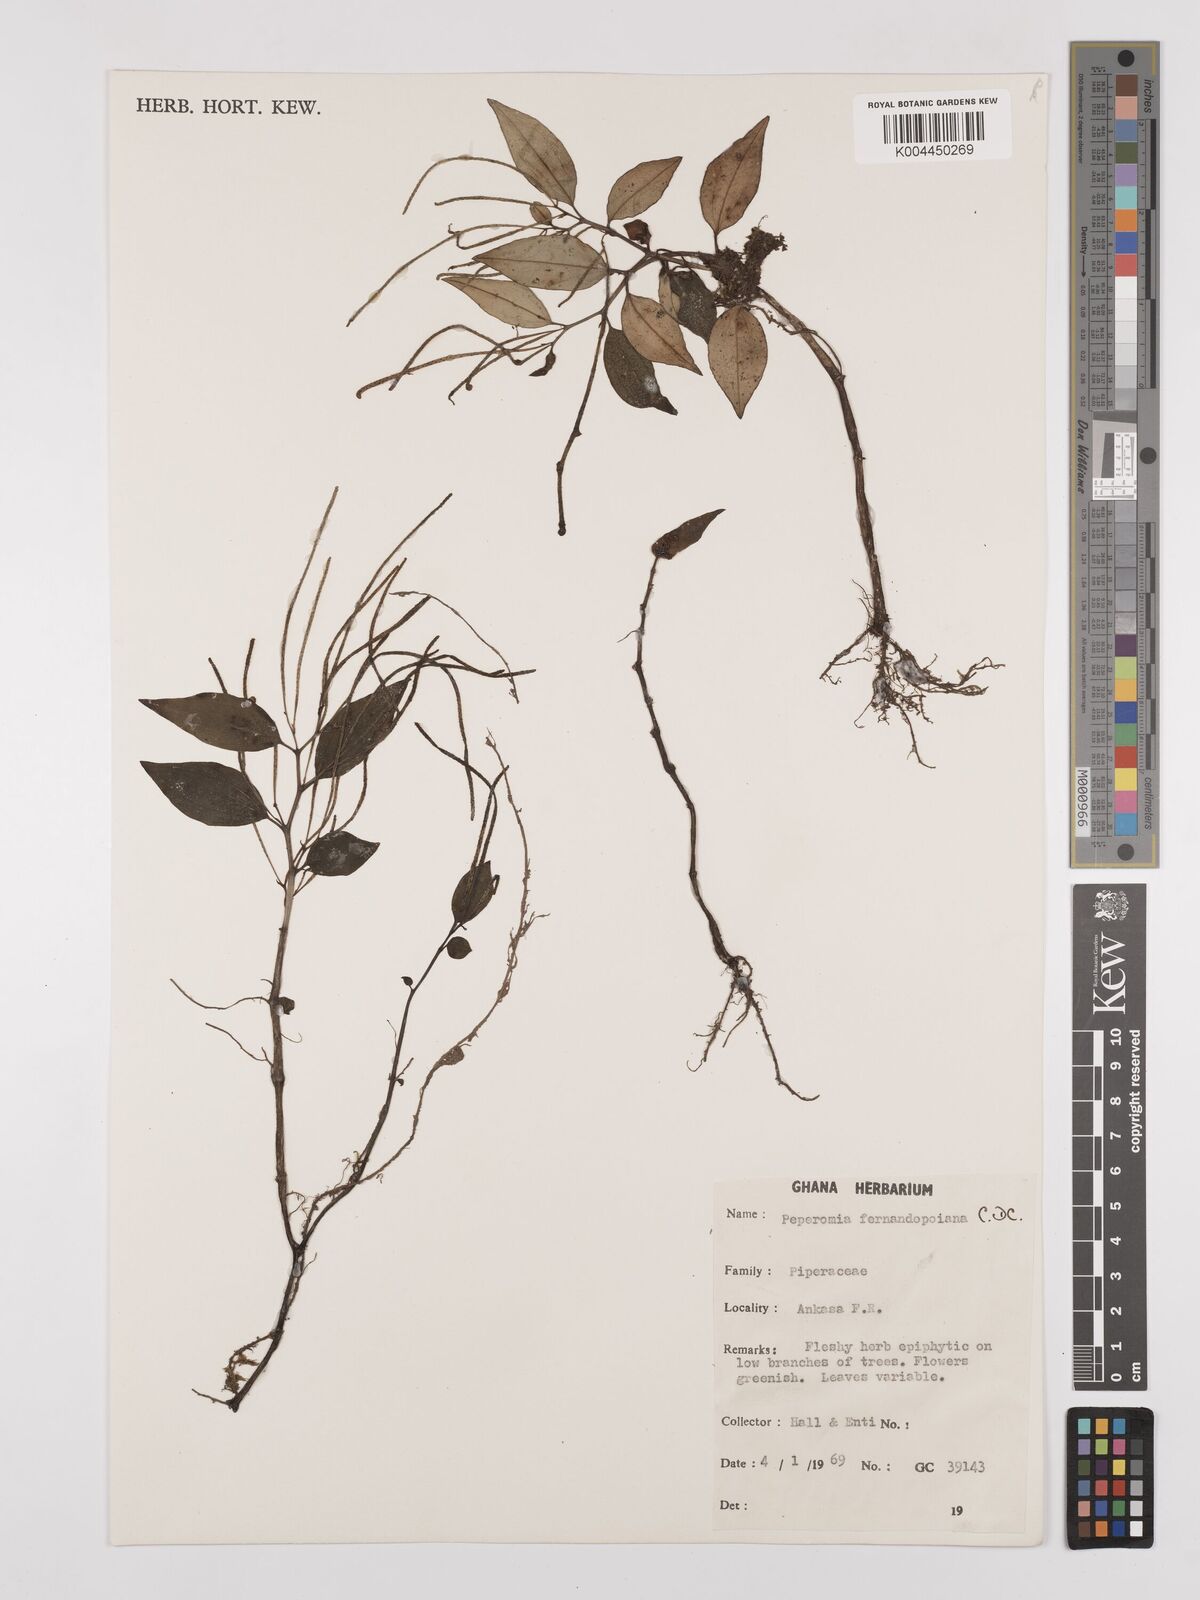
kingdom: Plantae
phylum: Tracheophyta
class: Magnoliopsida
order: Piperales
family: Piperaceae
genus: Peperomia
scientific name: Peperomia fernandeziana
